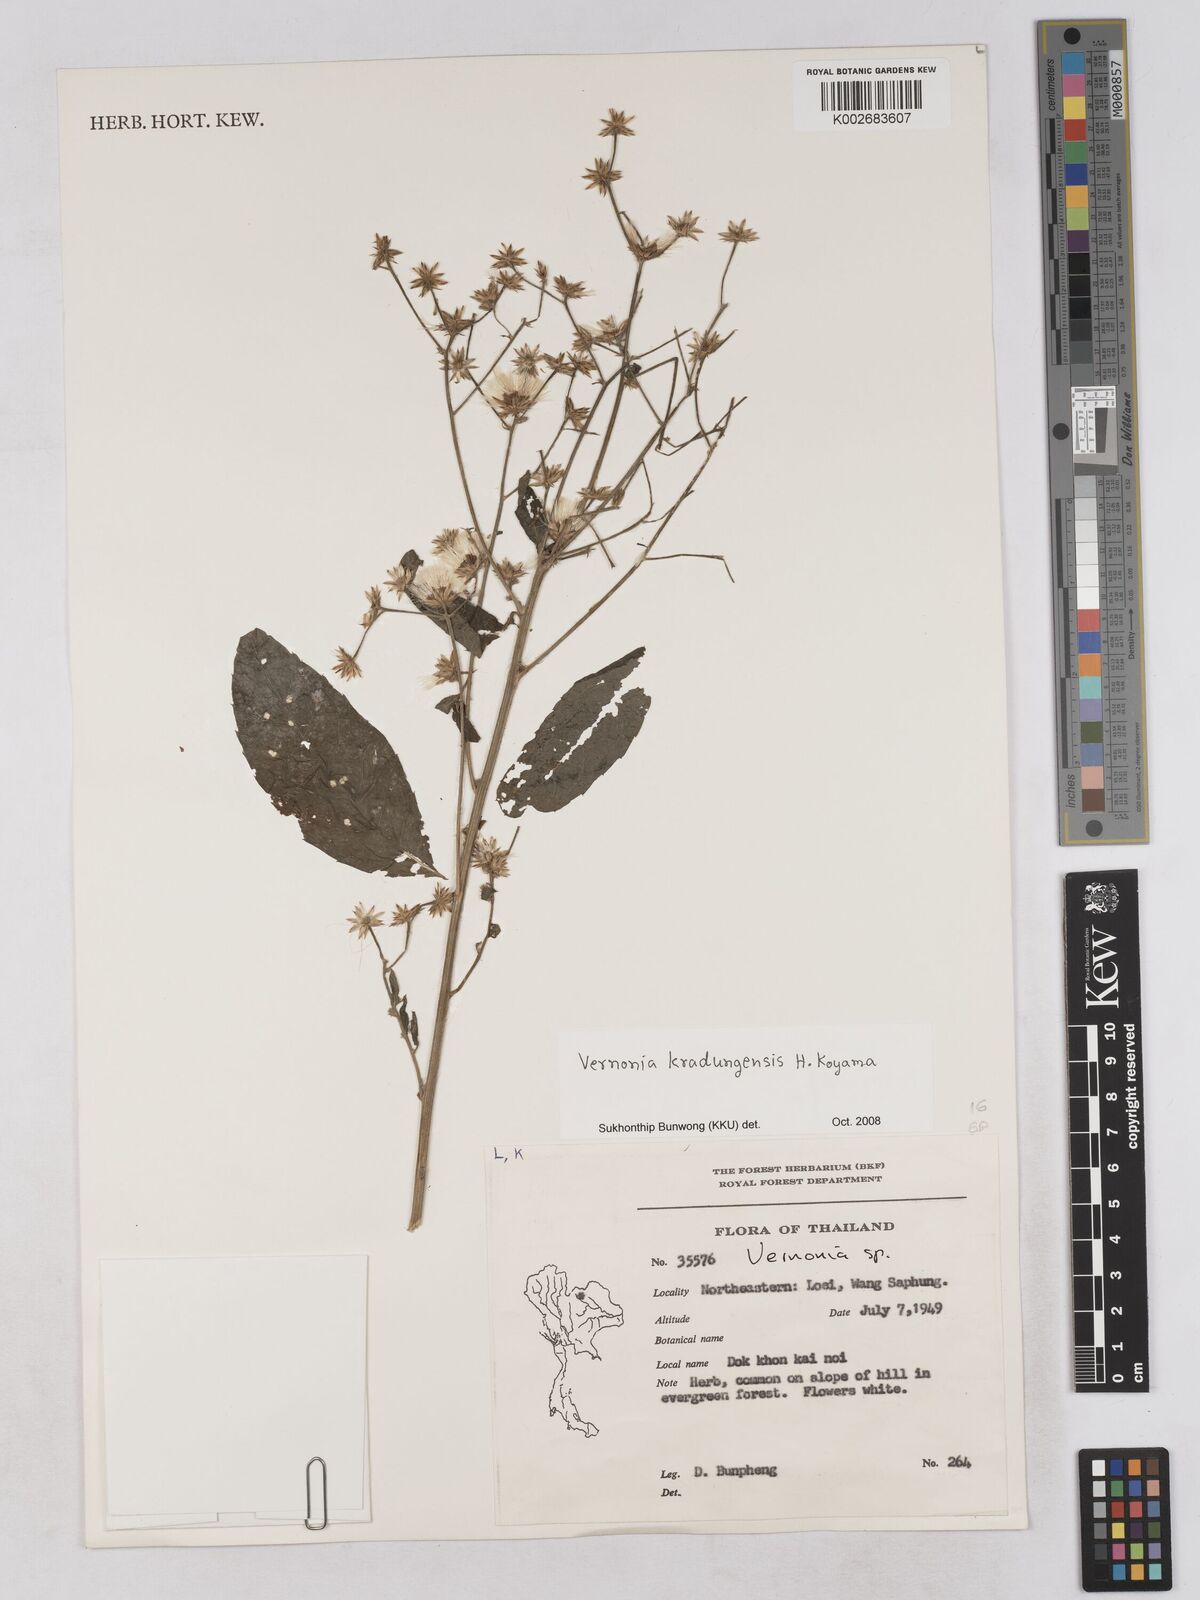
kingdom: Plantae
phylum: Tracheophyta
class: Magnoliopsida
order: Asterales
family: Asteraceae
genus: Vernonia
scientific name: Vernonia kradungensis
